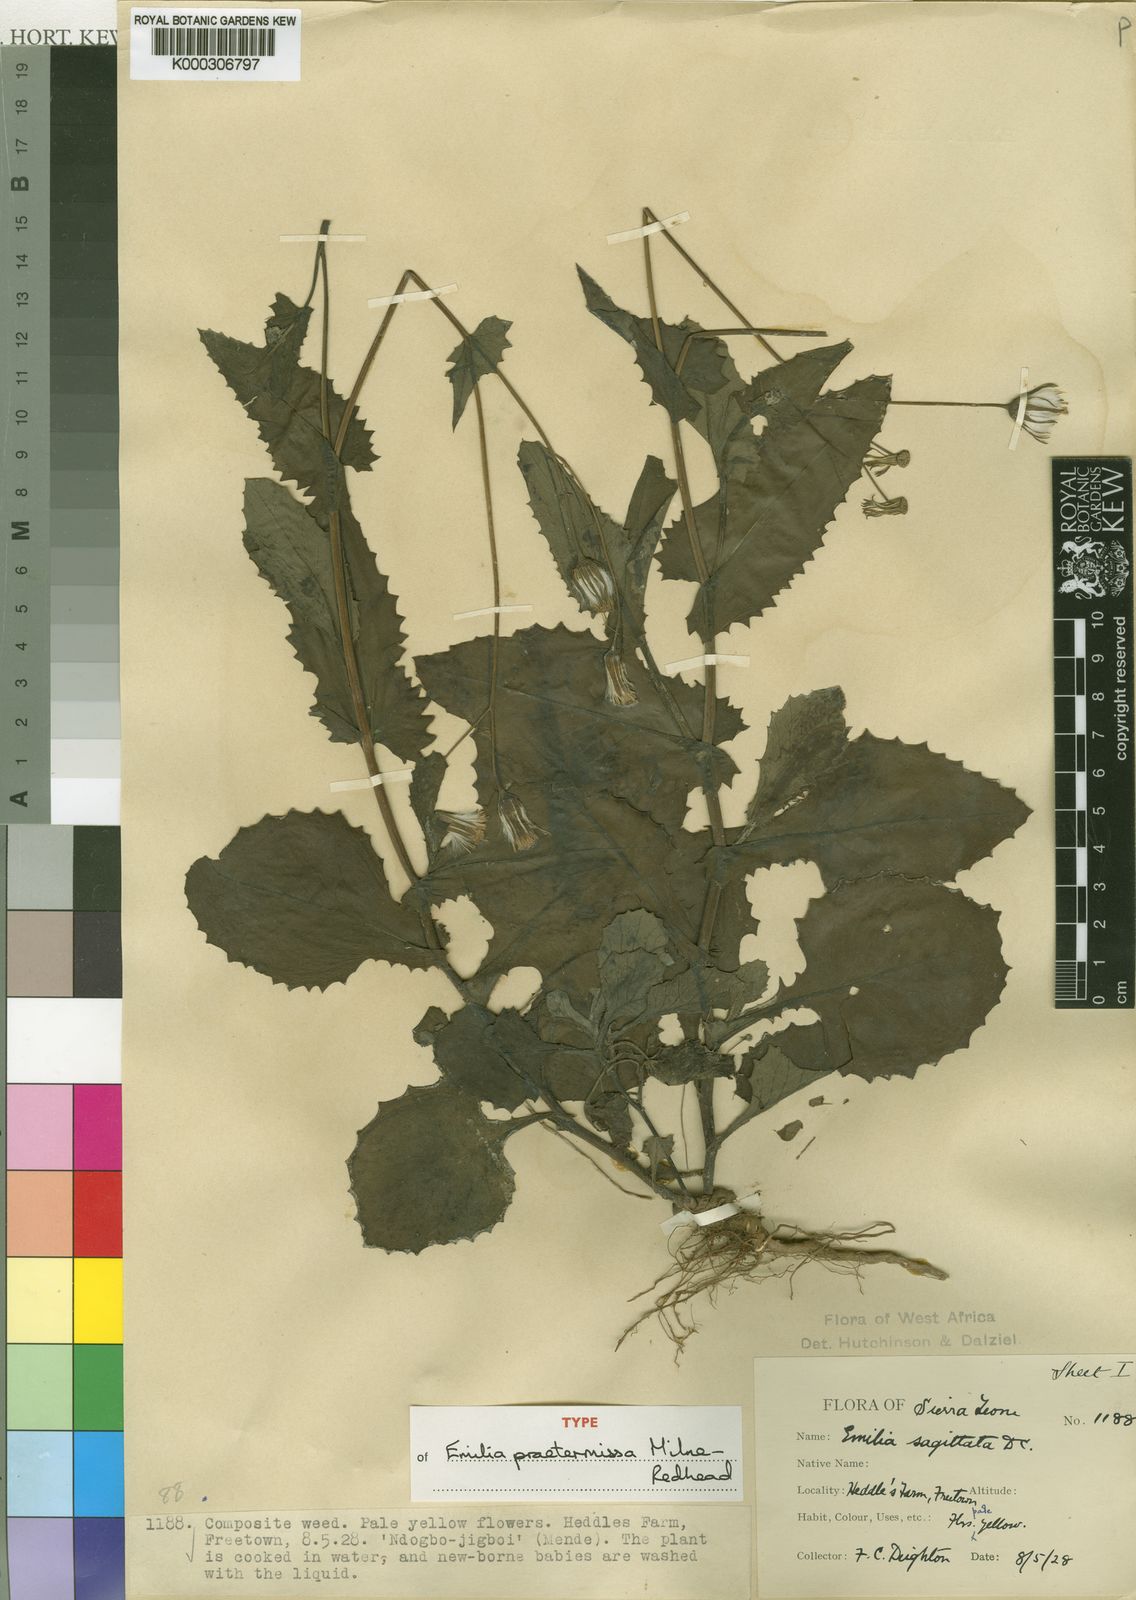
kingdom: Plantae
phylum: Tracheophyta
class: Magnoliopsida
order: Asterales
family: Asteraceae
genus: Emilia
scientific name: Emilia praetermissa
